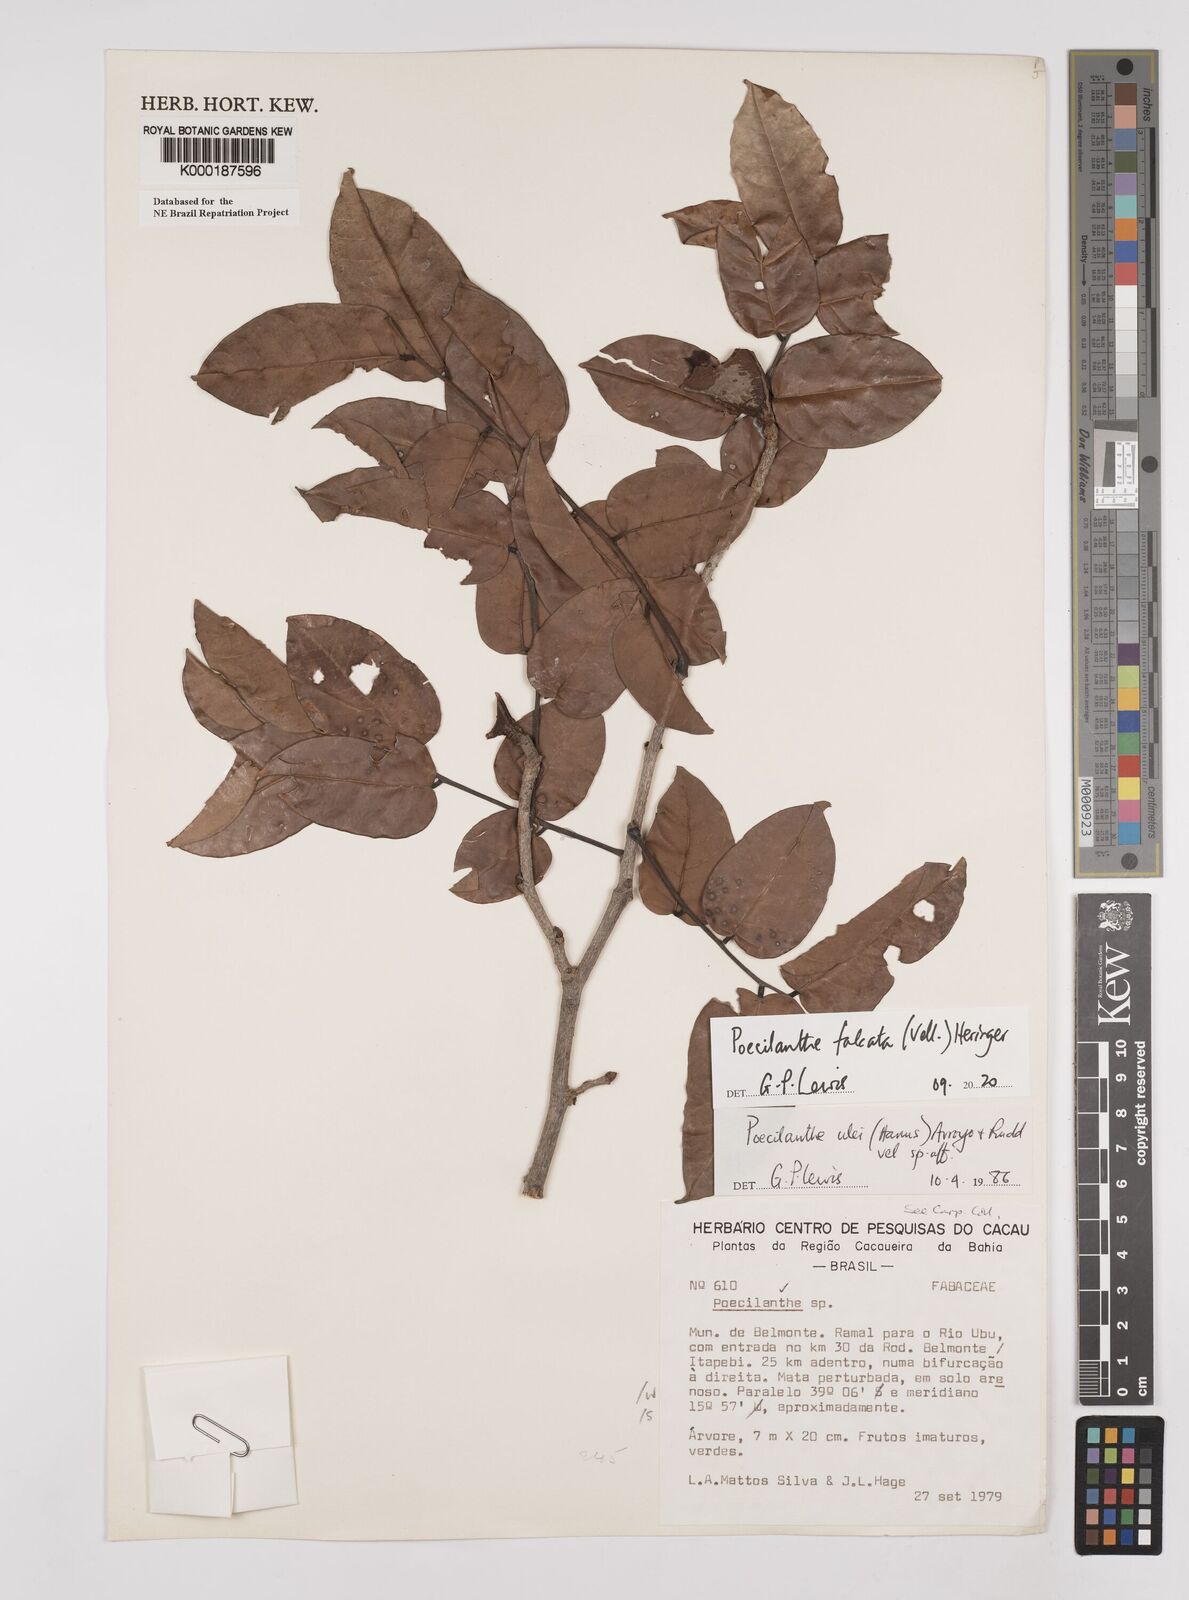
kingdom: Plantae
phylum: Tracheophyta
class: Magnoliopsida
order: Fabales
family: Fabaceae
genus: Poecilanthe
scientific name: Poecilanthe ulei
